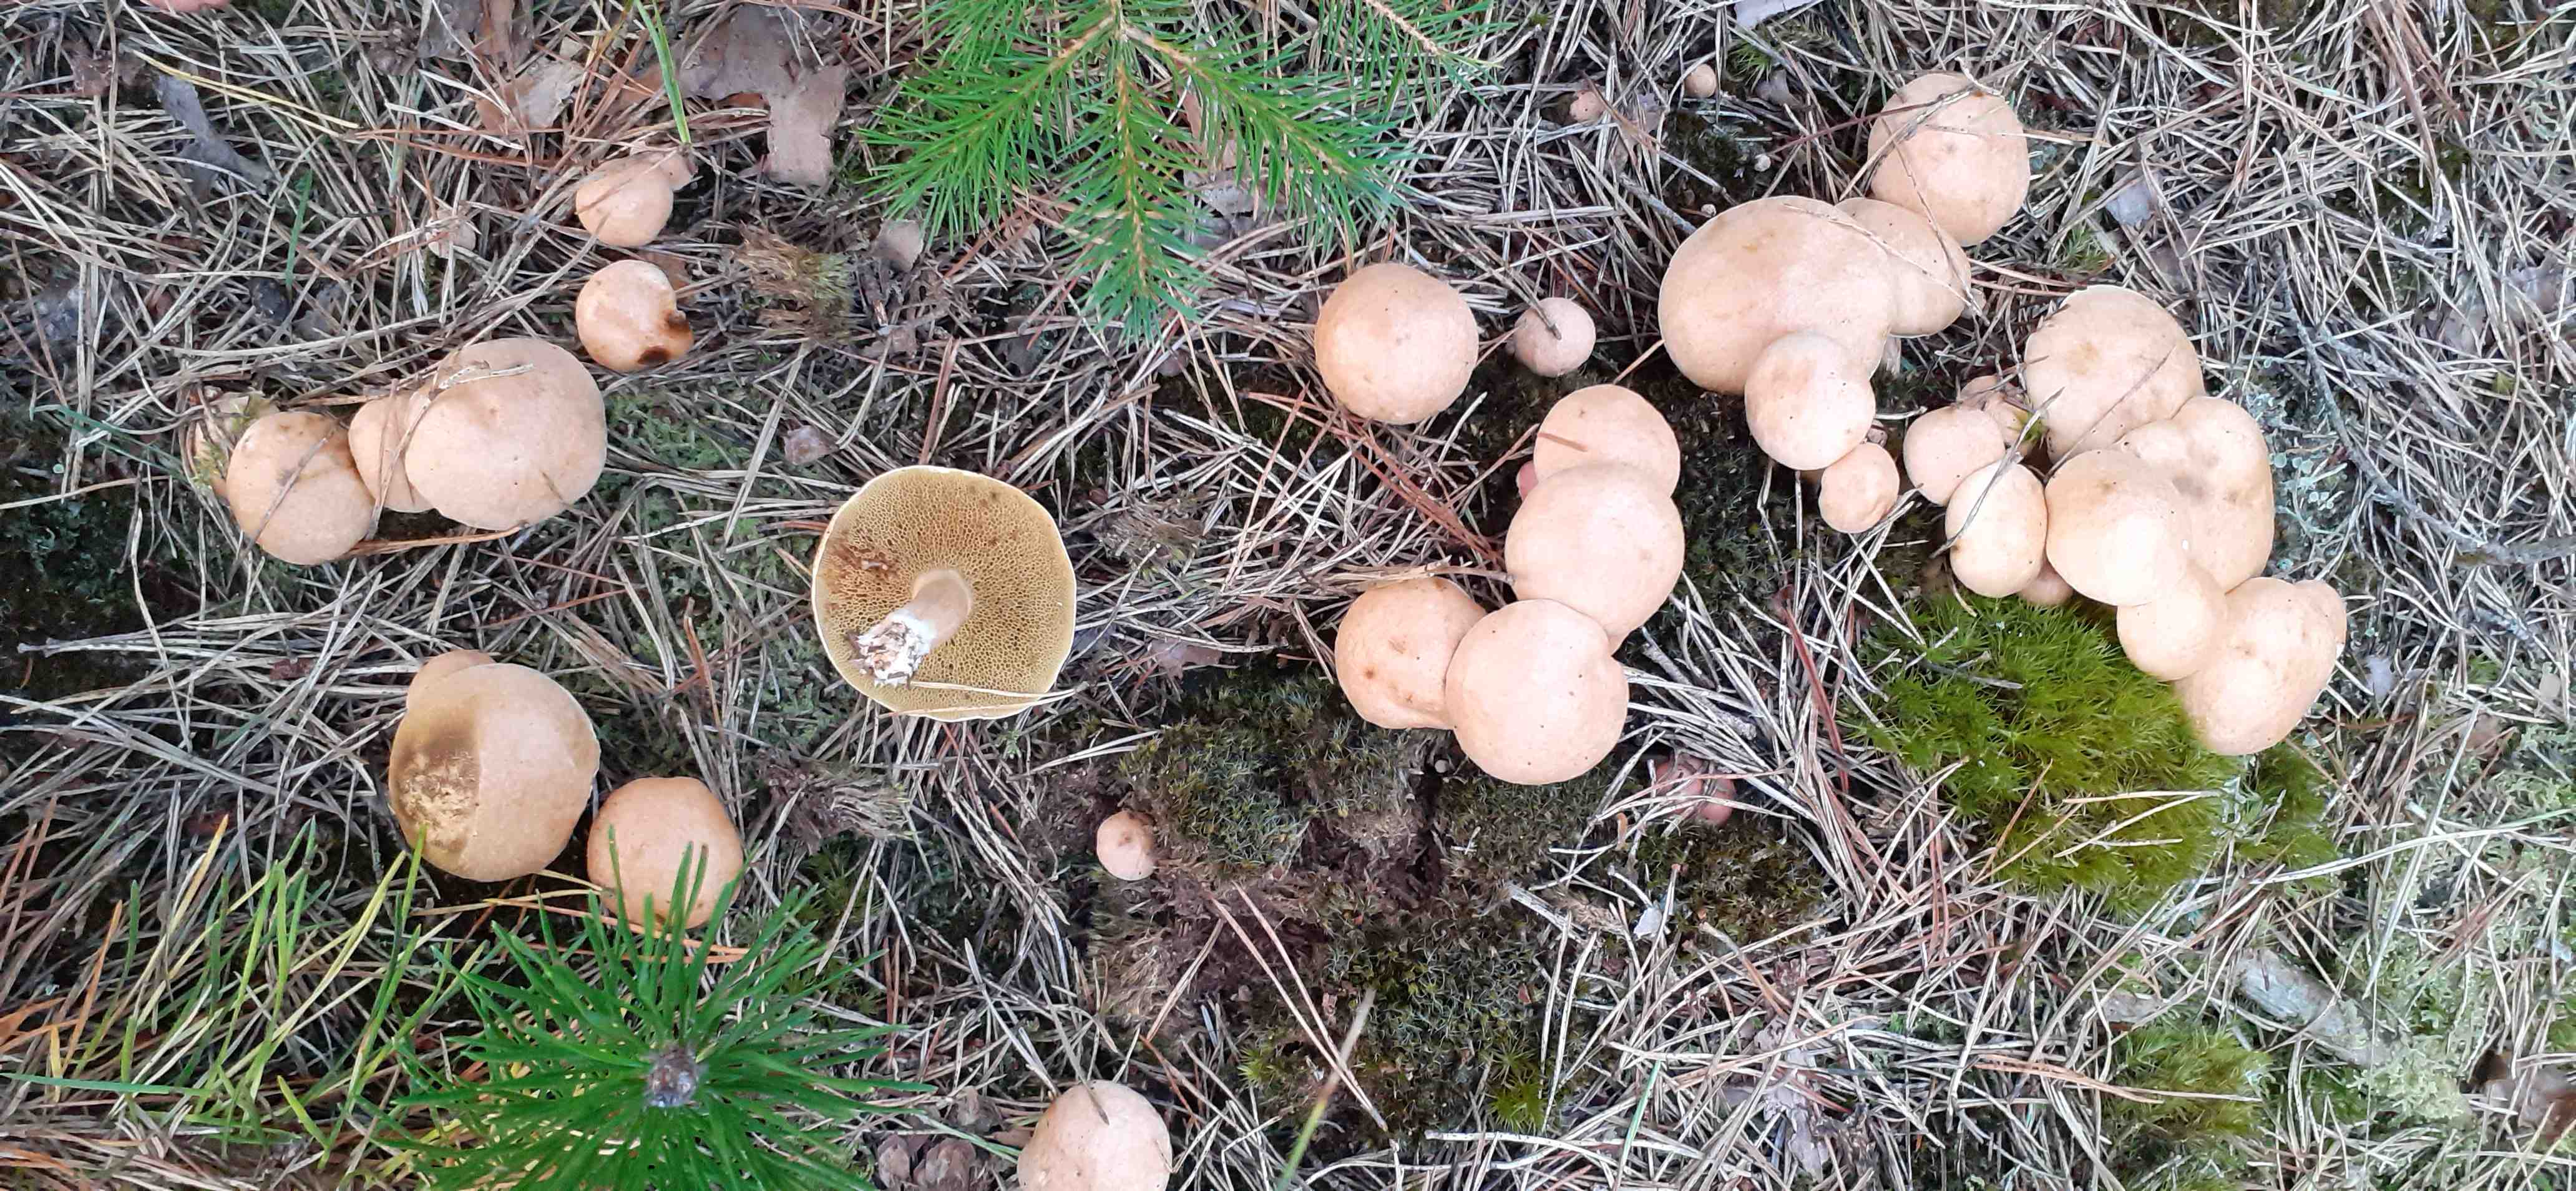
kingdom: Fungi
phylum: Basidiomycota
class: Agaricomycetes
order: Boletales
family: Suillaceae
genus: Suillus
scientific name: Suillus bovinus
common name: grovporet slimrørhat
